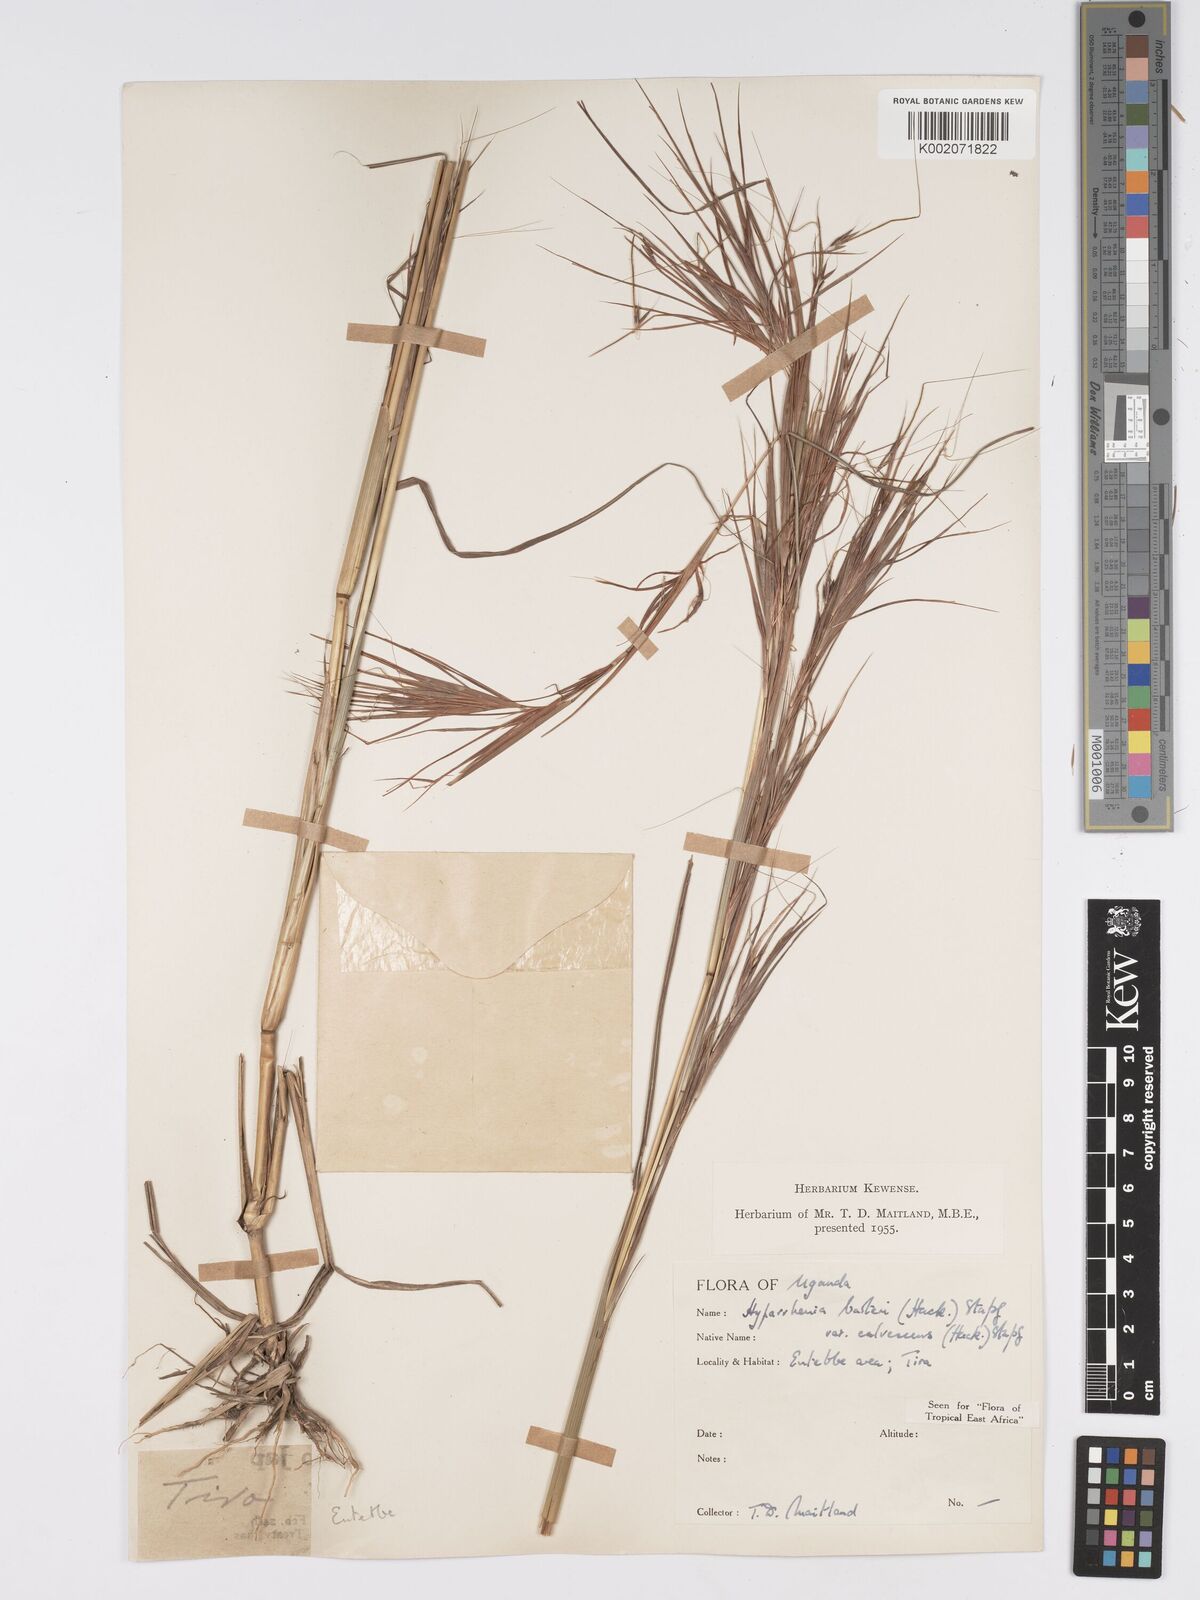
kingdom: Plantae
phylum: Tracheophyta
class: Liliopsida
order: Poales
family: Poaceae
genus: Hyparrhenia
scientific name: Hyparrhenia figariana
